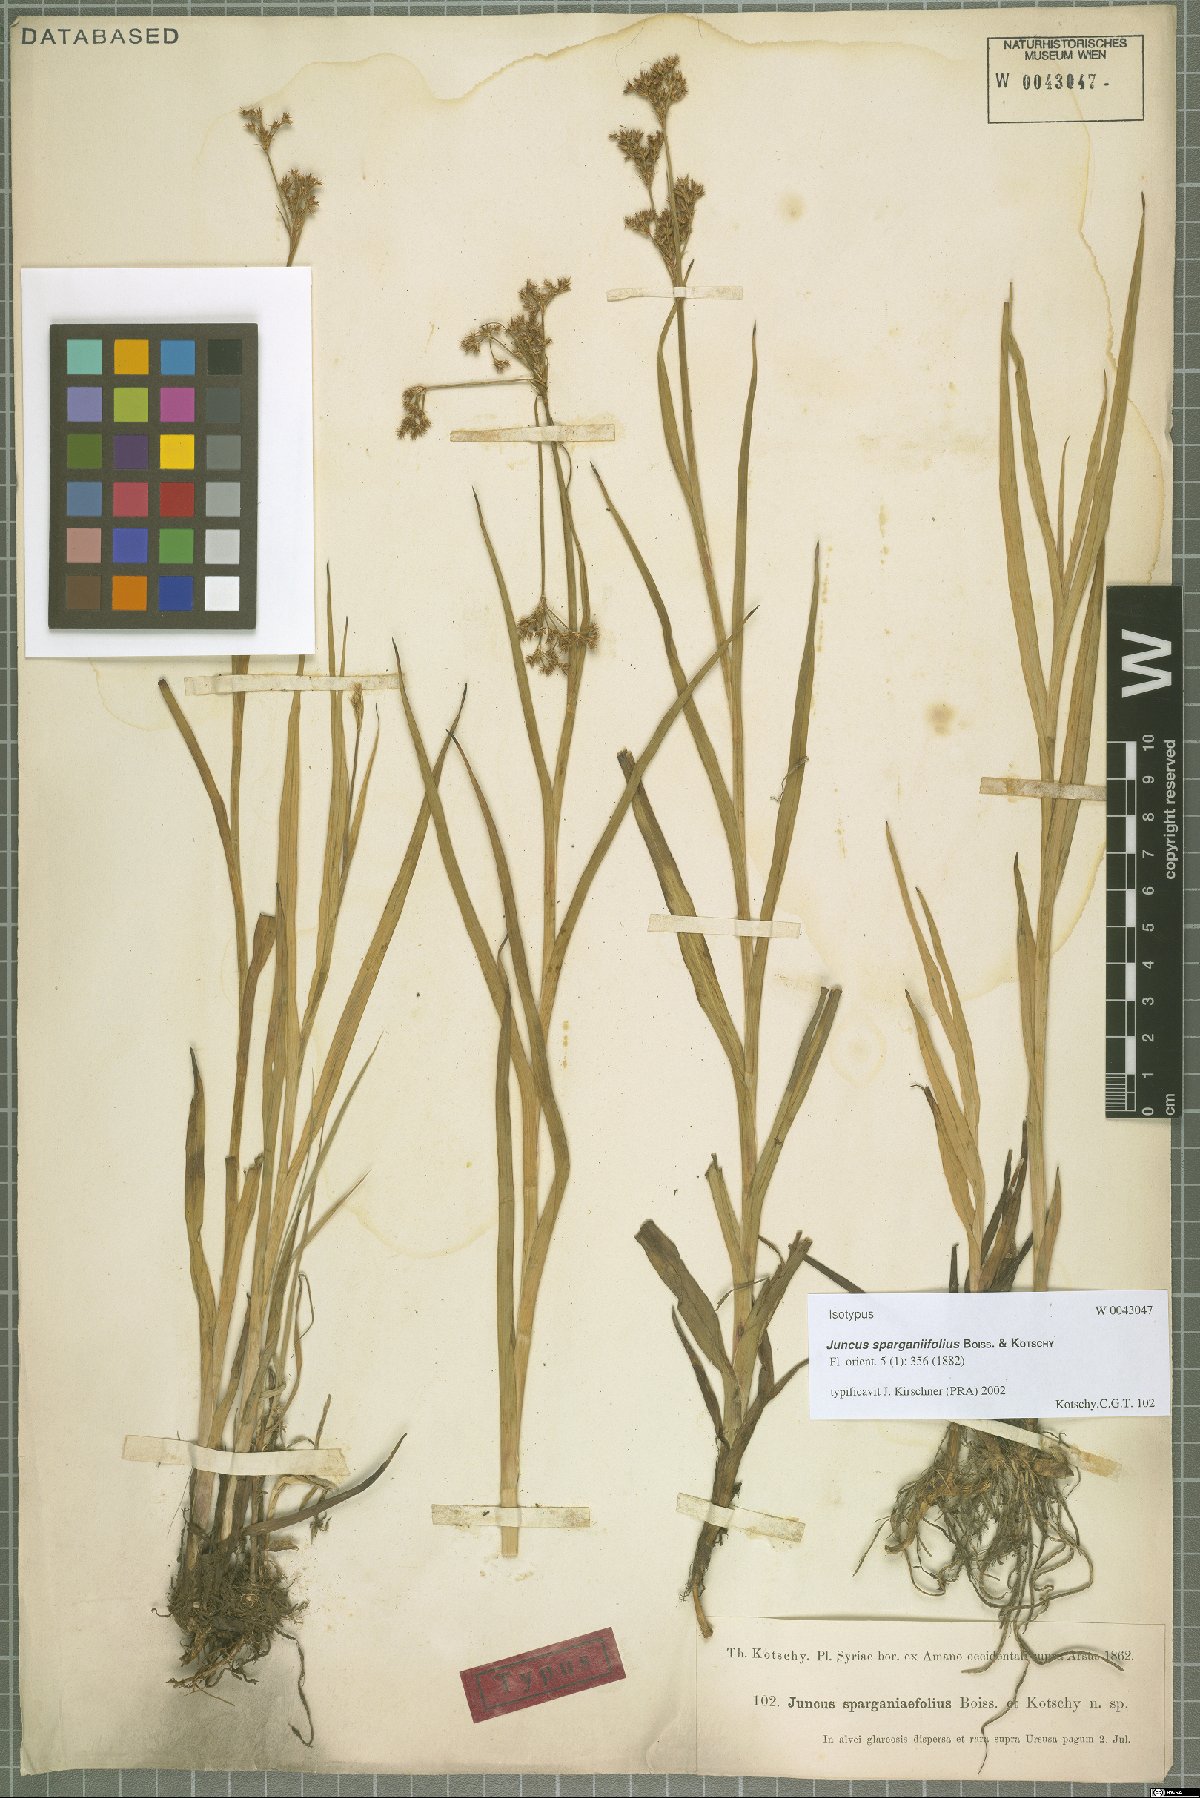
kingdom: Plantae
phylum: Tracheophyta
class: Liliopsida
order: Poales
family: Juncaceae
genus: Juncus
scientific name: Juncus sparganiifolius
